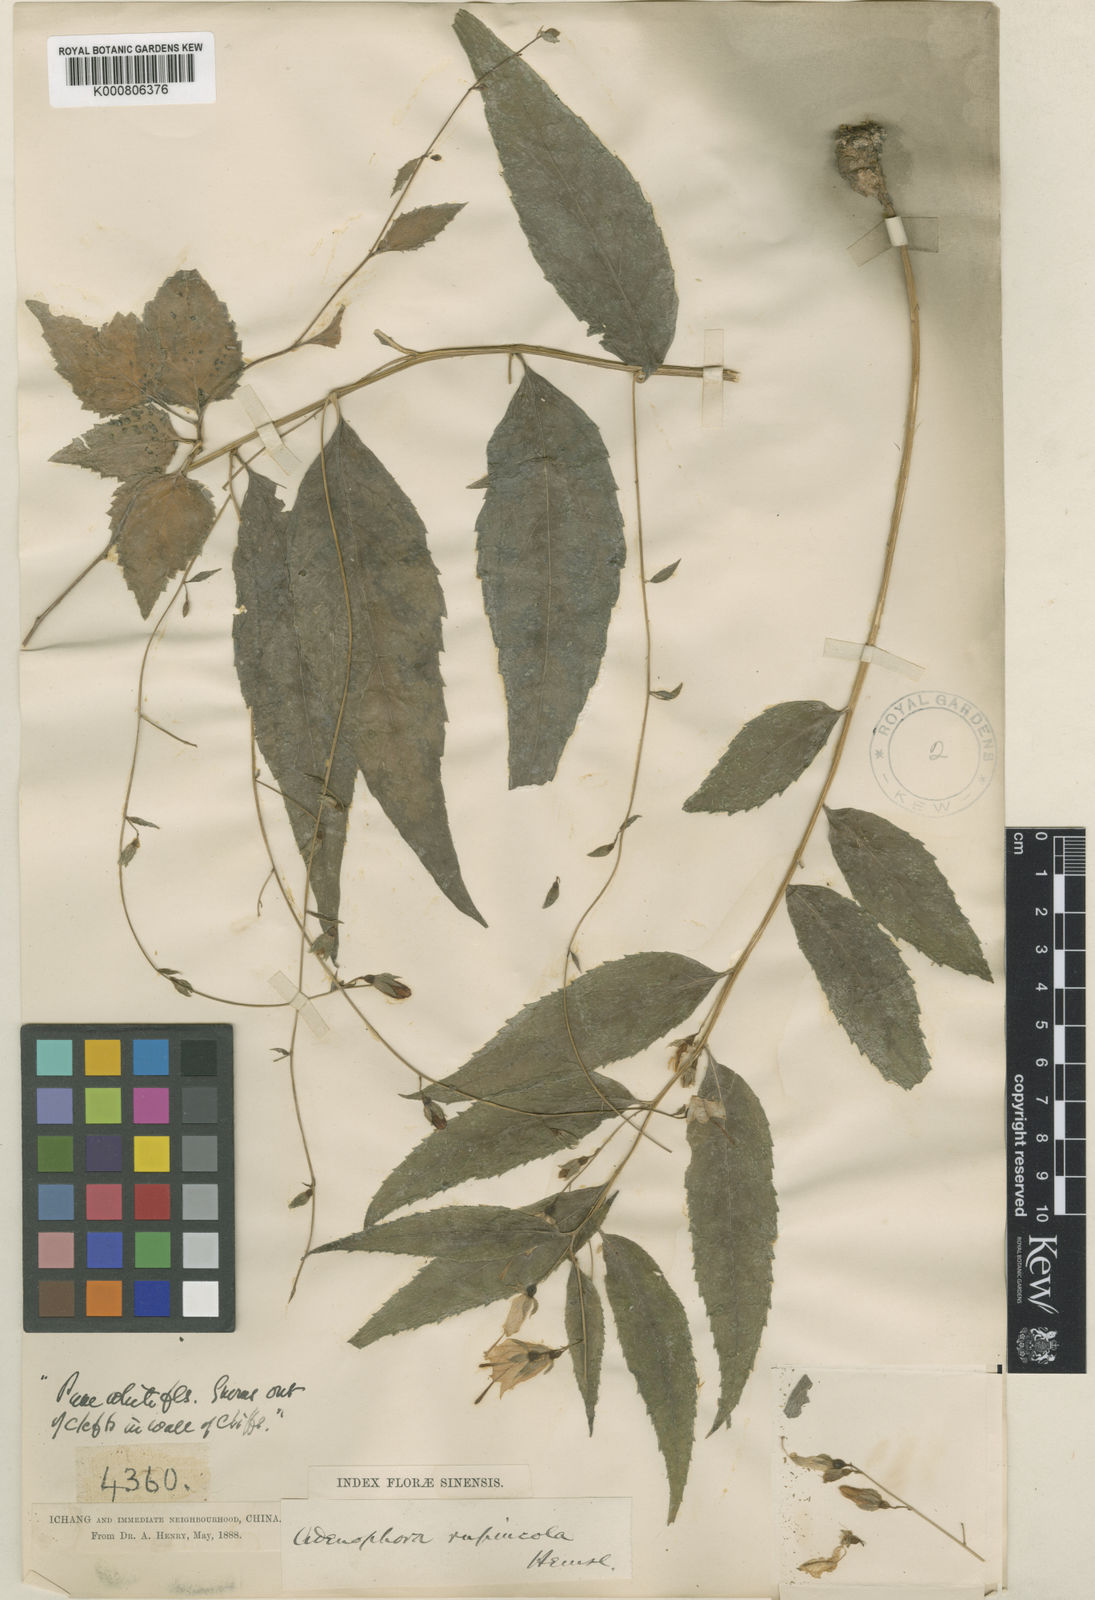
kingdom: Plantae
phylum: Tracheophyta
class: Magnoliopsida
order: Asterales
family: Campanulaceae
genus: Adenophora
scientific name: Adenophora rupincola
